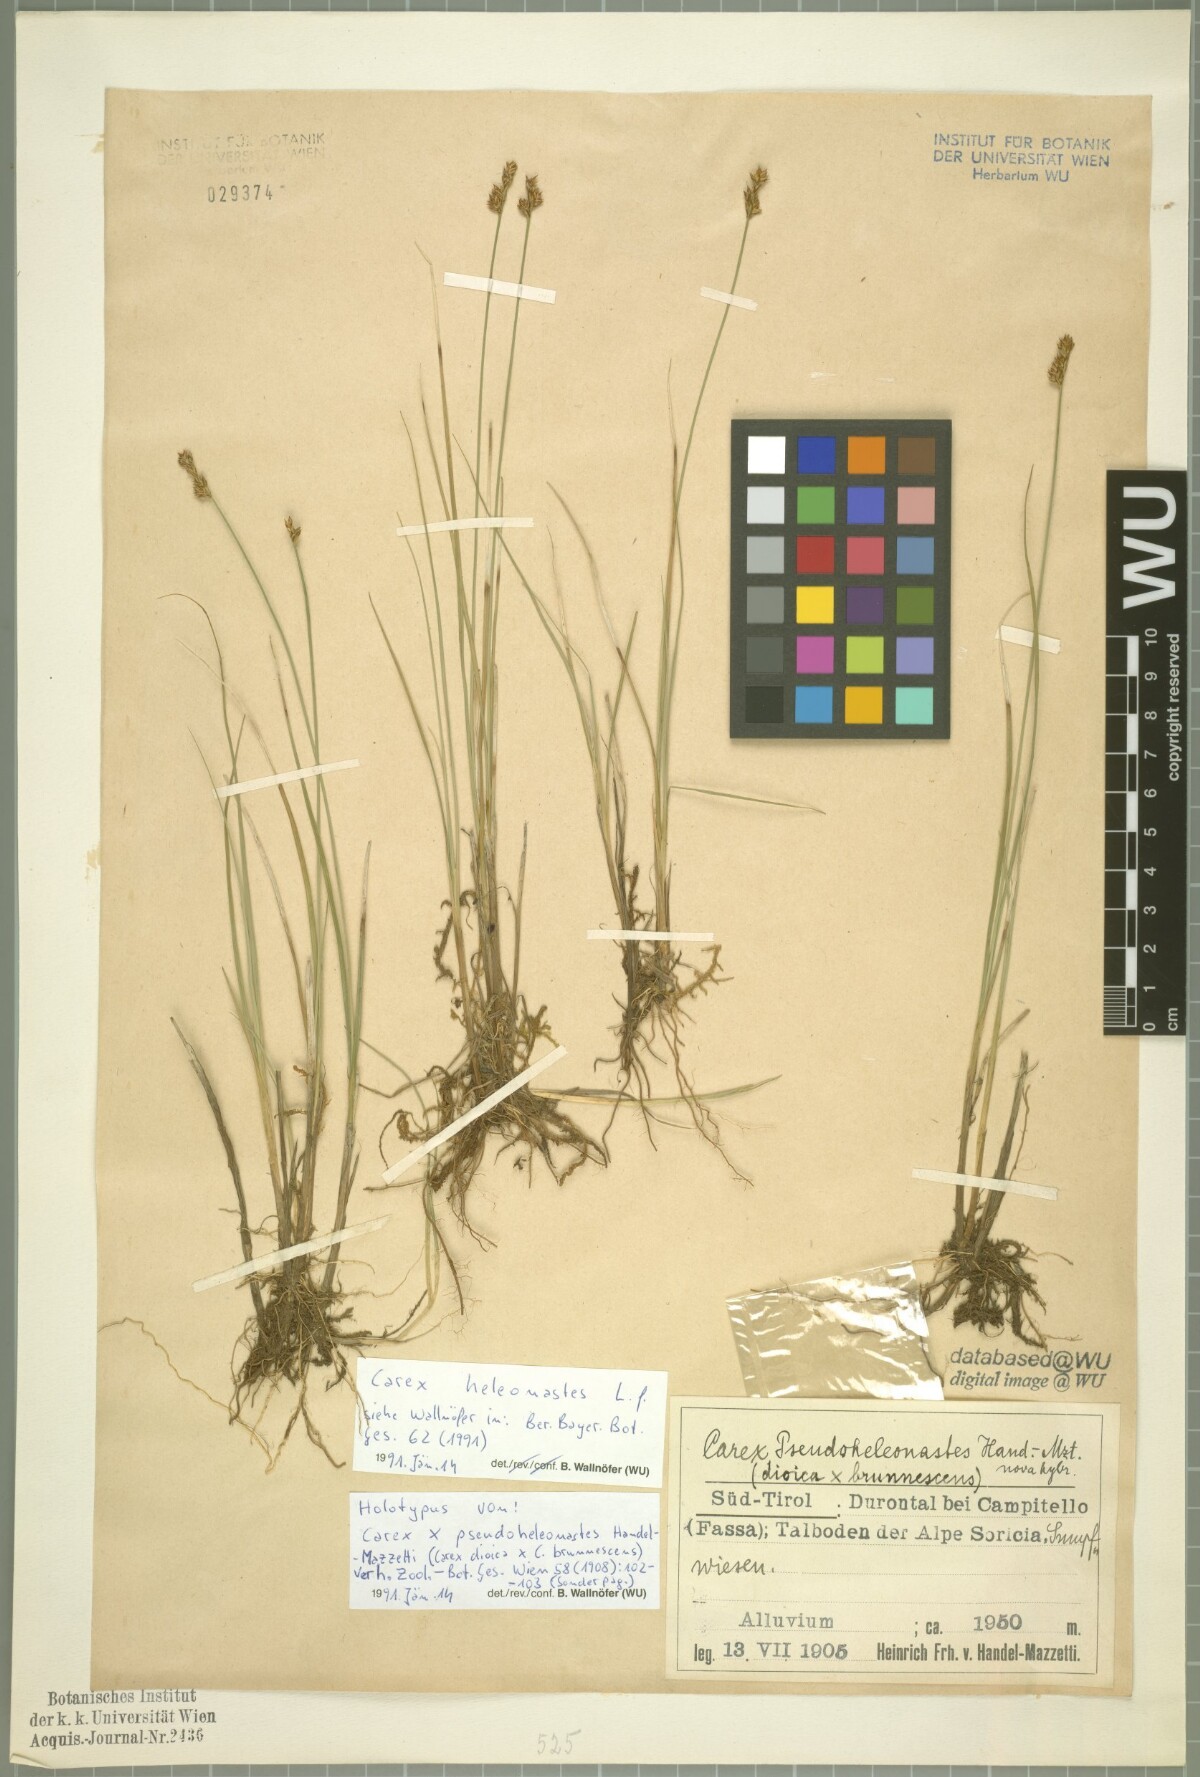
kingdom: Plantae
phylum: Tracheophyta
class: Liliopsida
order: Poales
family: Cyperaceae
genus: Carex
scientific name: Carex heleonastes
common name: Hudson bay sedge
